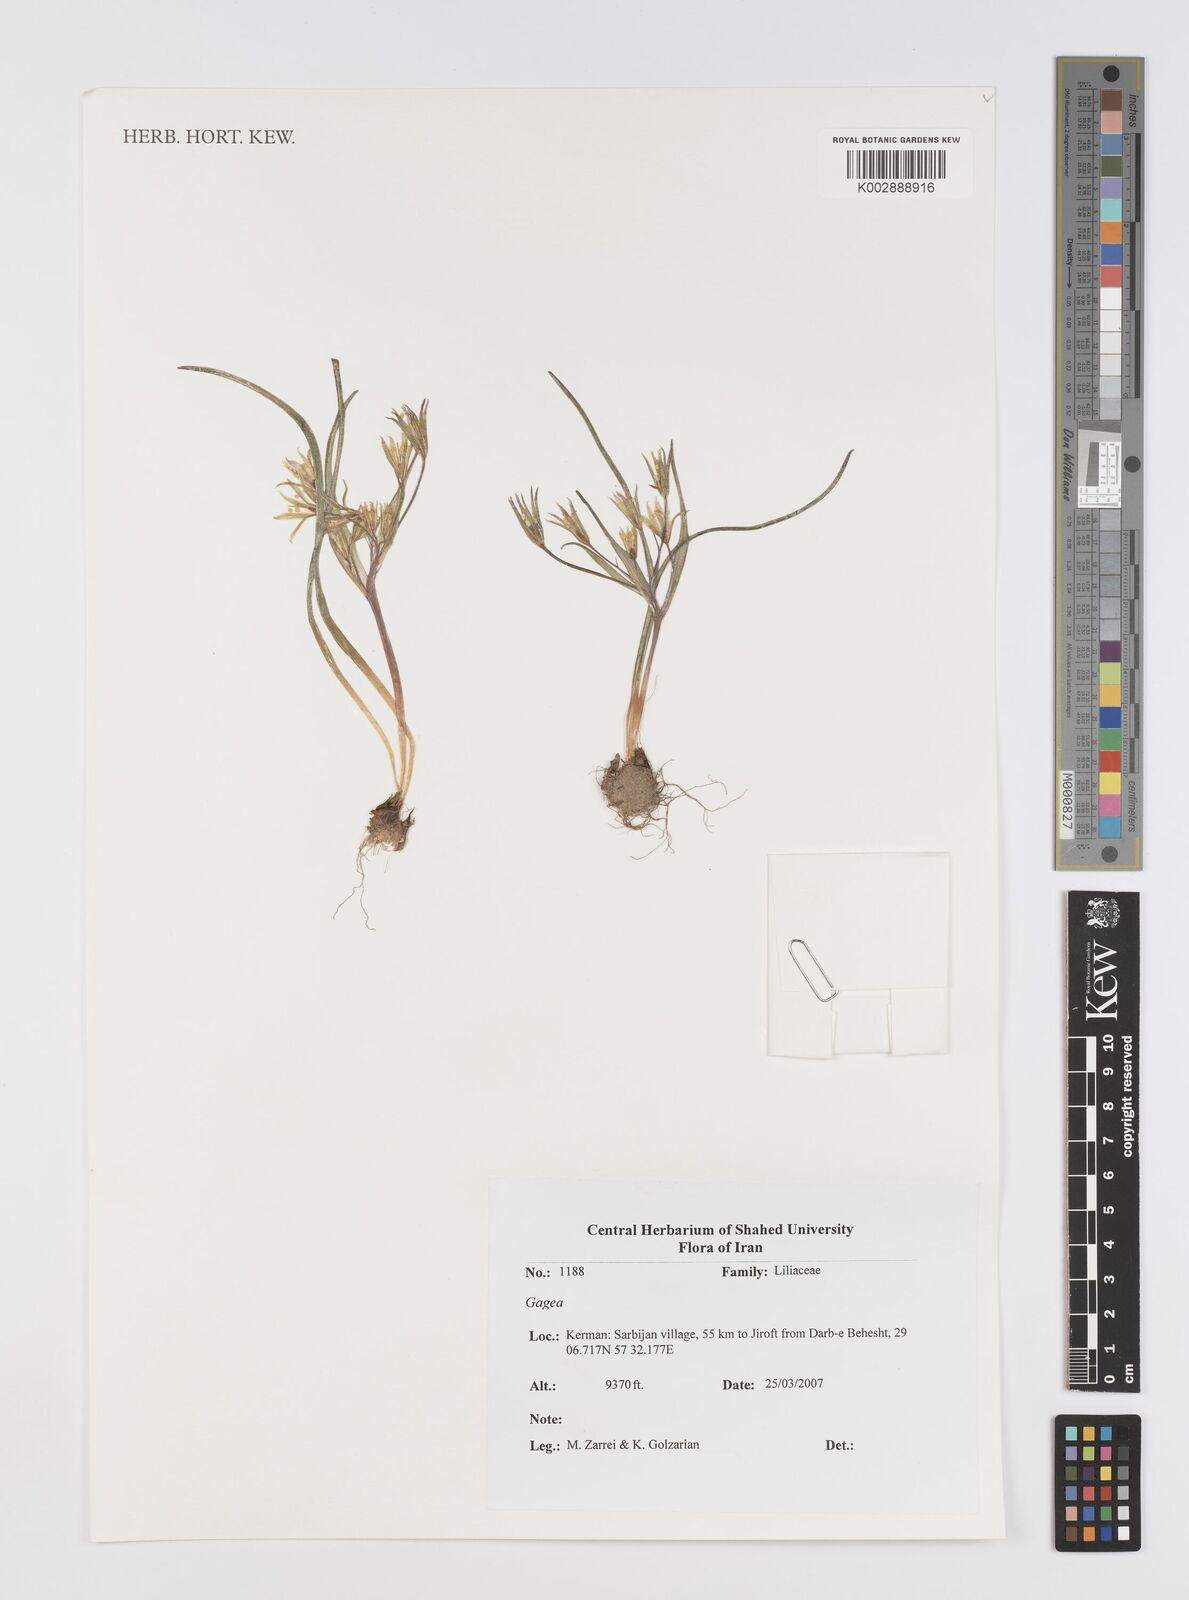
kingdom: Plantae
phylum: Tracheophyta
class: Liliopsida
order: Liliales
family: Liliaceae
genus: Gagea
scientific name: Gagea
